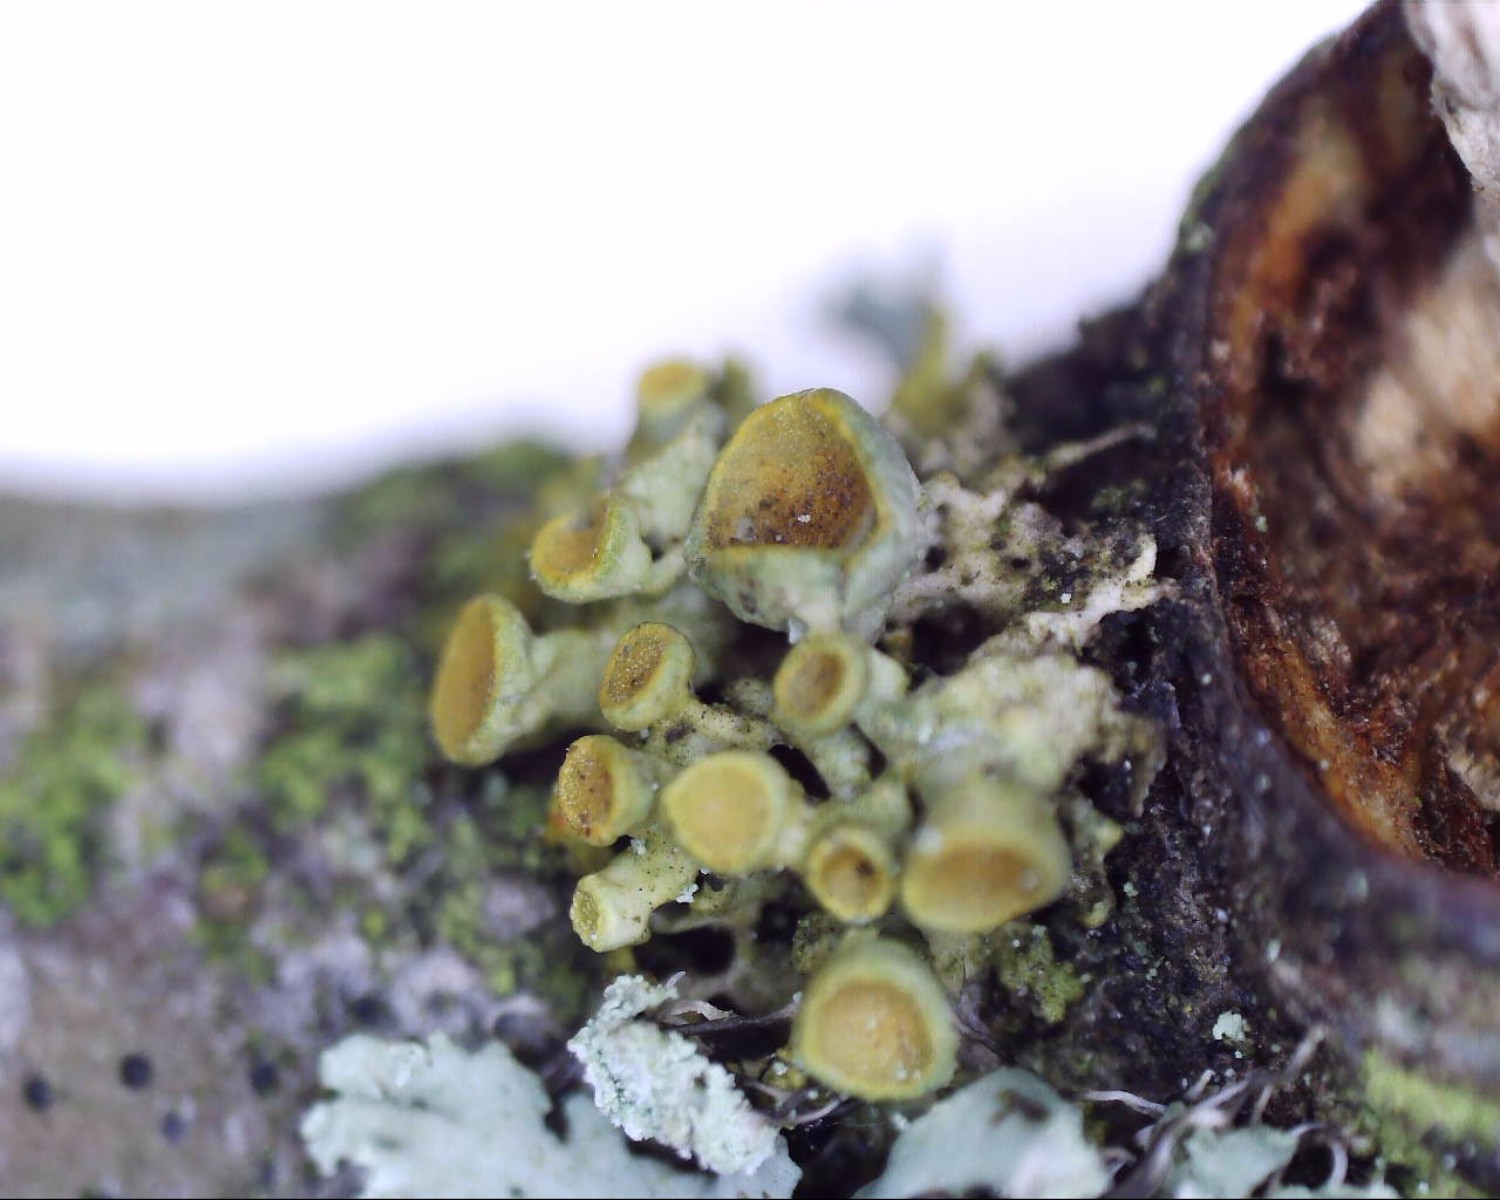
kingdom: Fungi
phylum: Ascomycota
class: Lecanoromycetes
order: Teloschistales
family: Teloschistaceae
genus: Polycauliona
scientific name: Polycauliona polycarpa
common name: mangefrugtet orangelav
